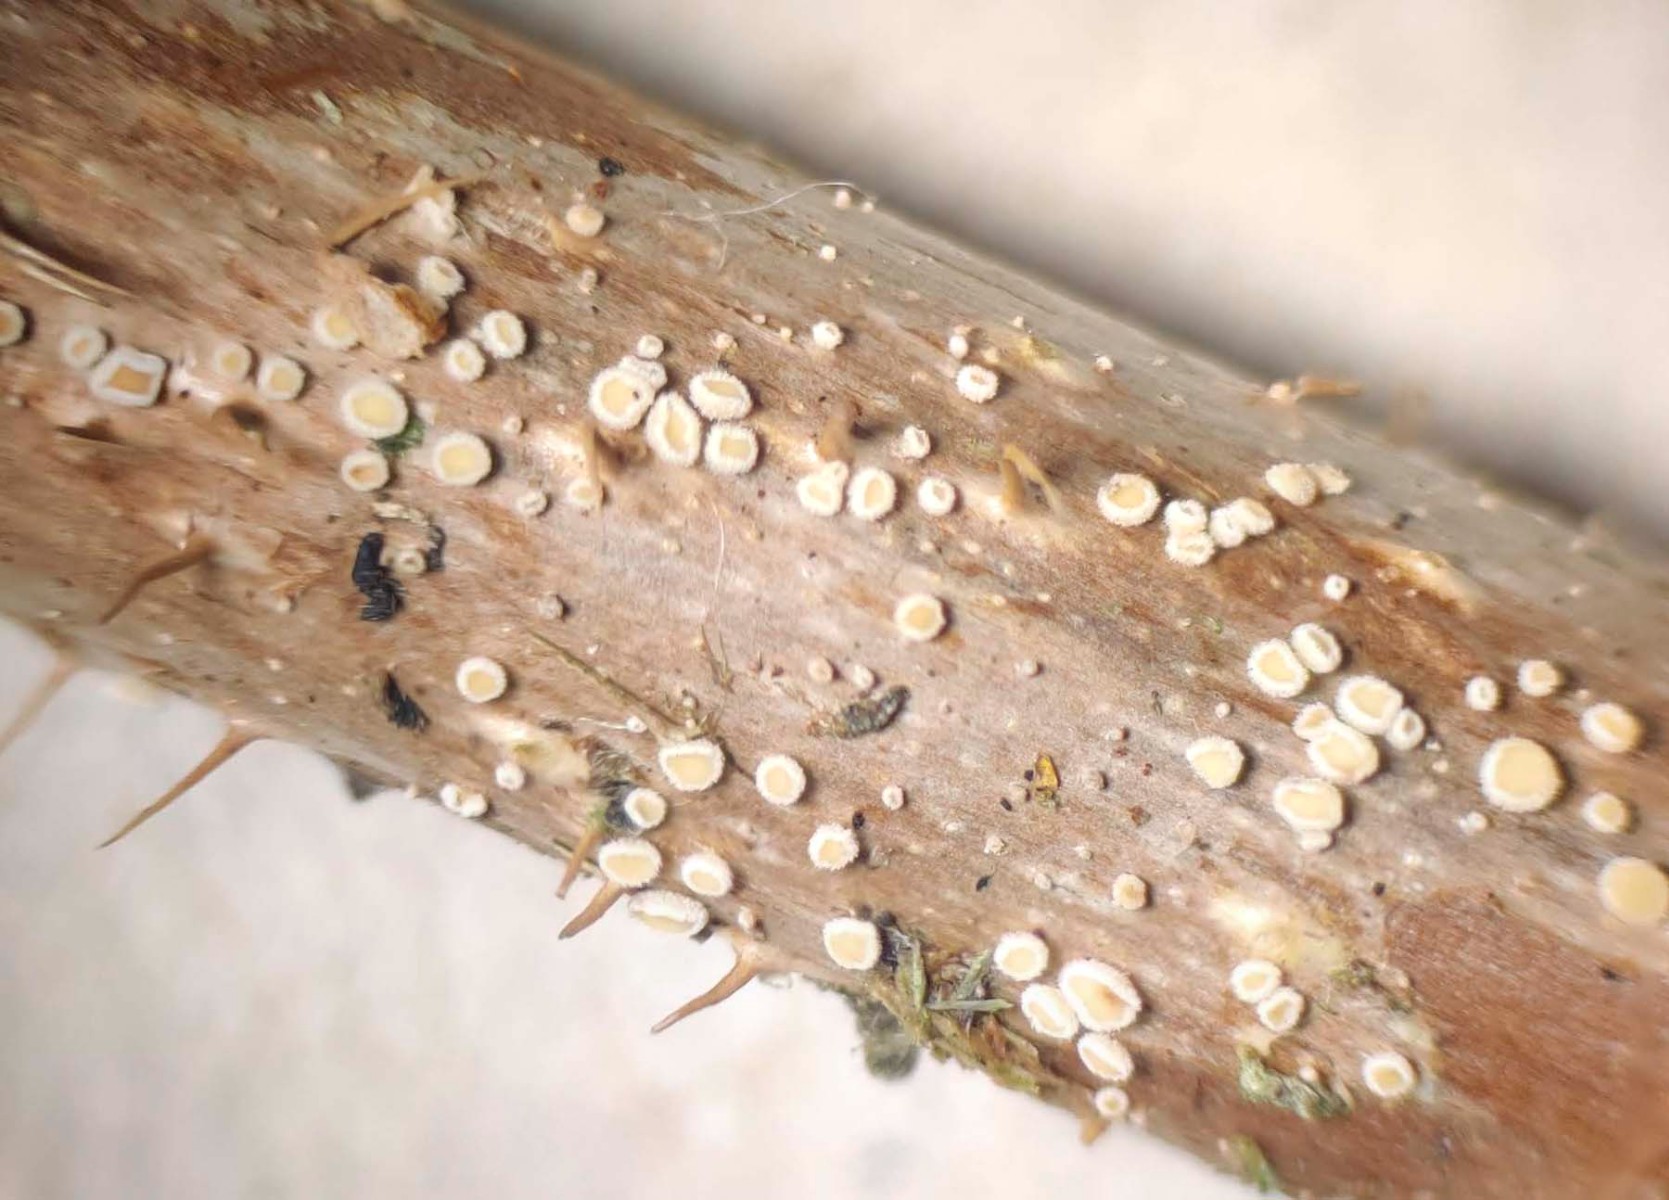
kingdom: Fungi
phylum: Ascomycota
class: Leotiomycetes
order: Helotiales
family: Lachnaceae
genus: Capitotricha
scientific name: Capitotricha rubi
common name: orangegul frynseskive
